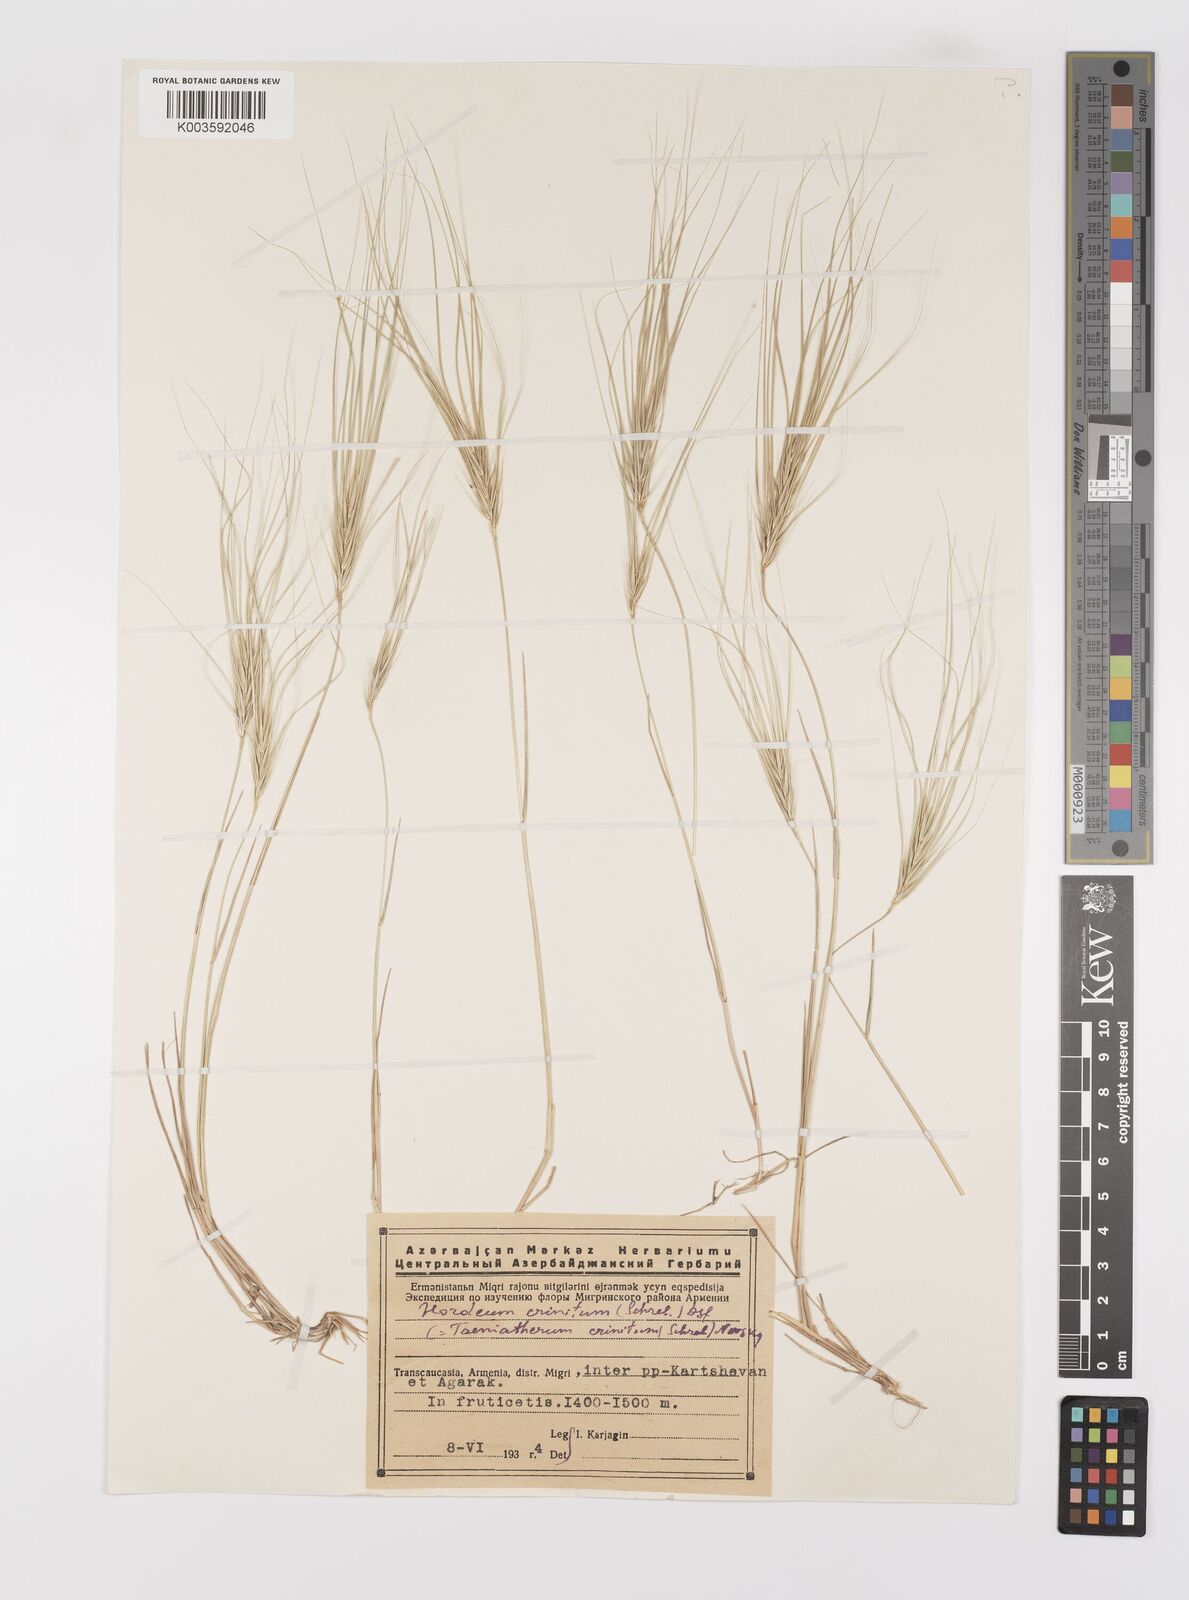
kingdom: Plantae
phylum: Tracheophyta
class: Liliopsida
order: Poales
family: Poaceae
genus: Taeniatherum
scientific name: Taeniatherum caput-medusae
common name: Medusahead
